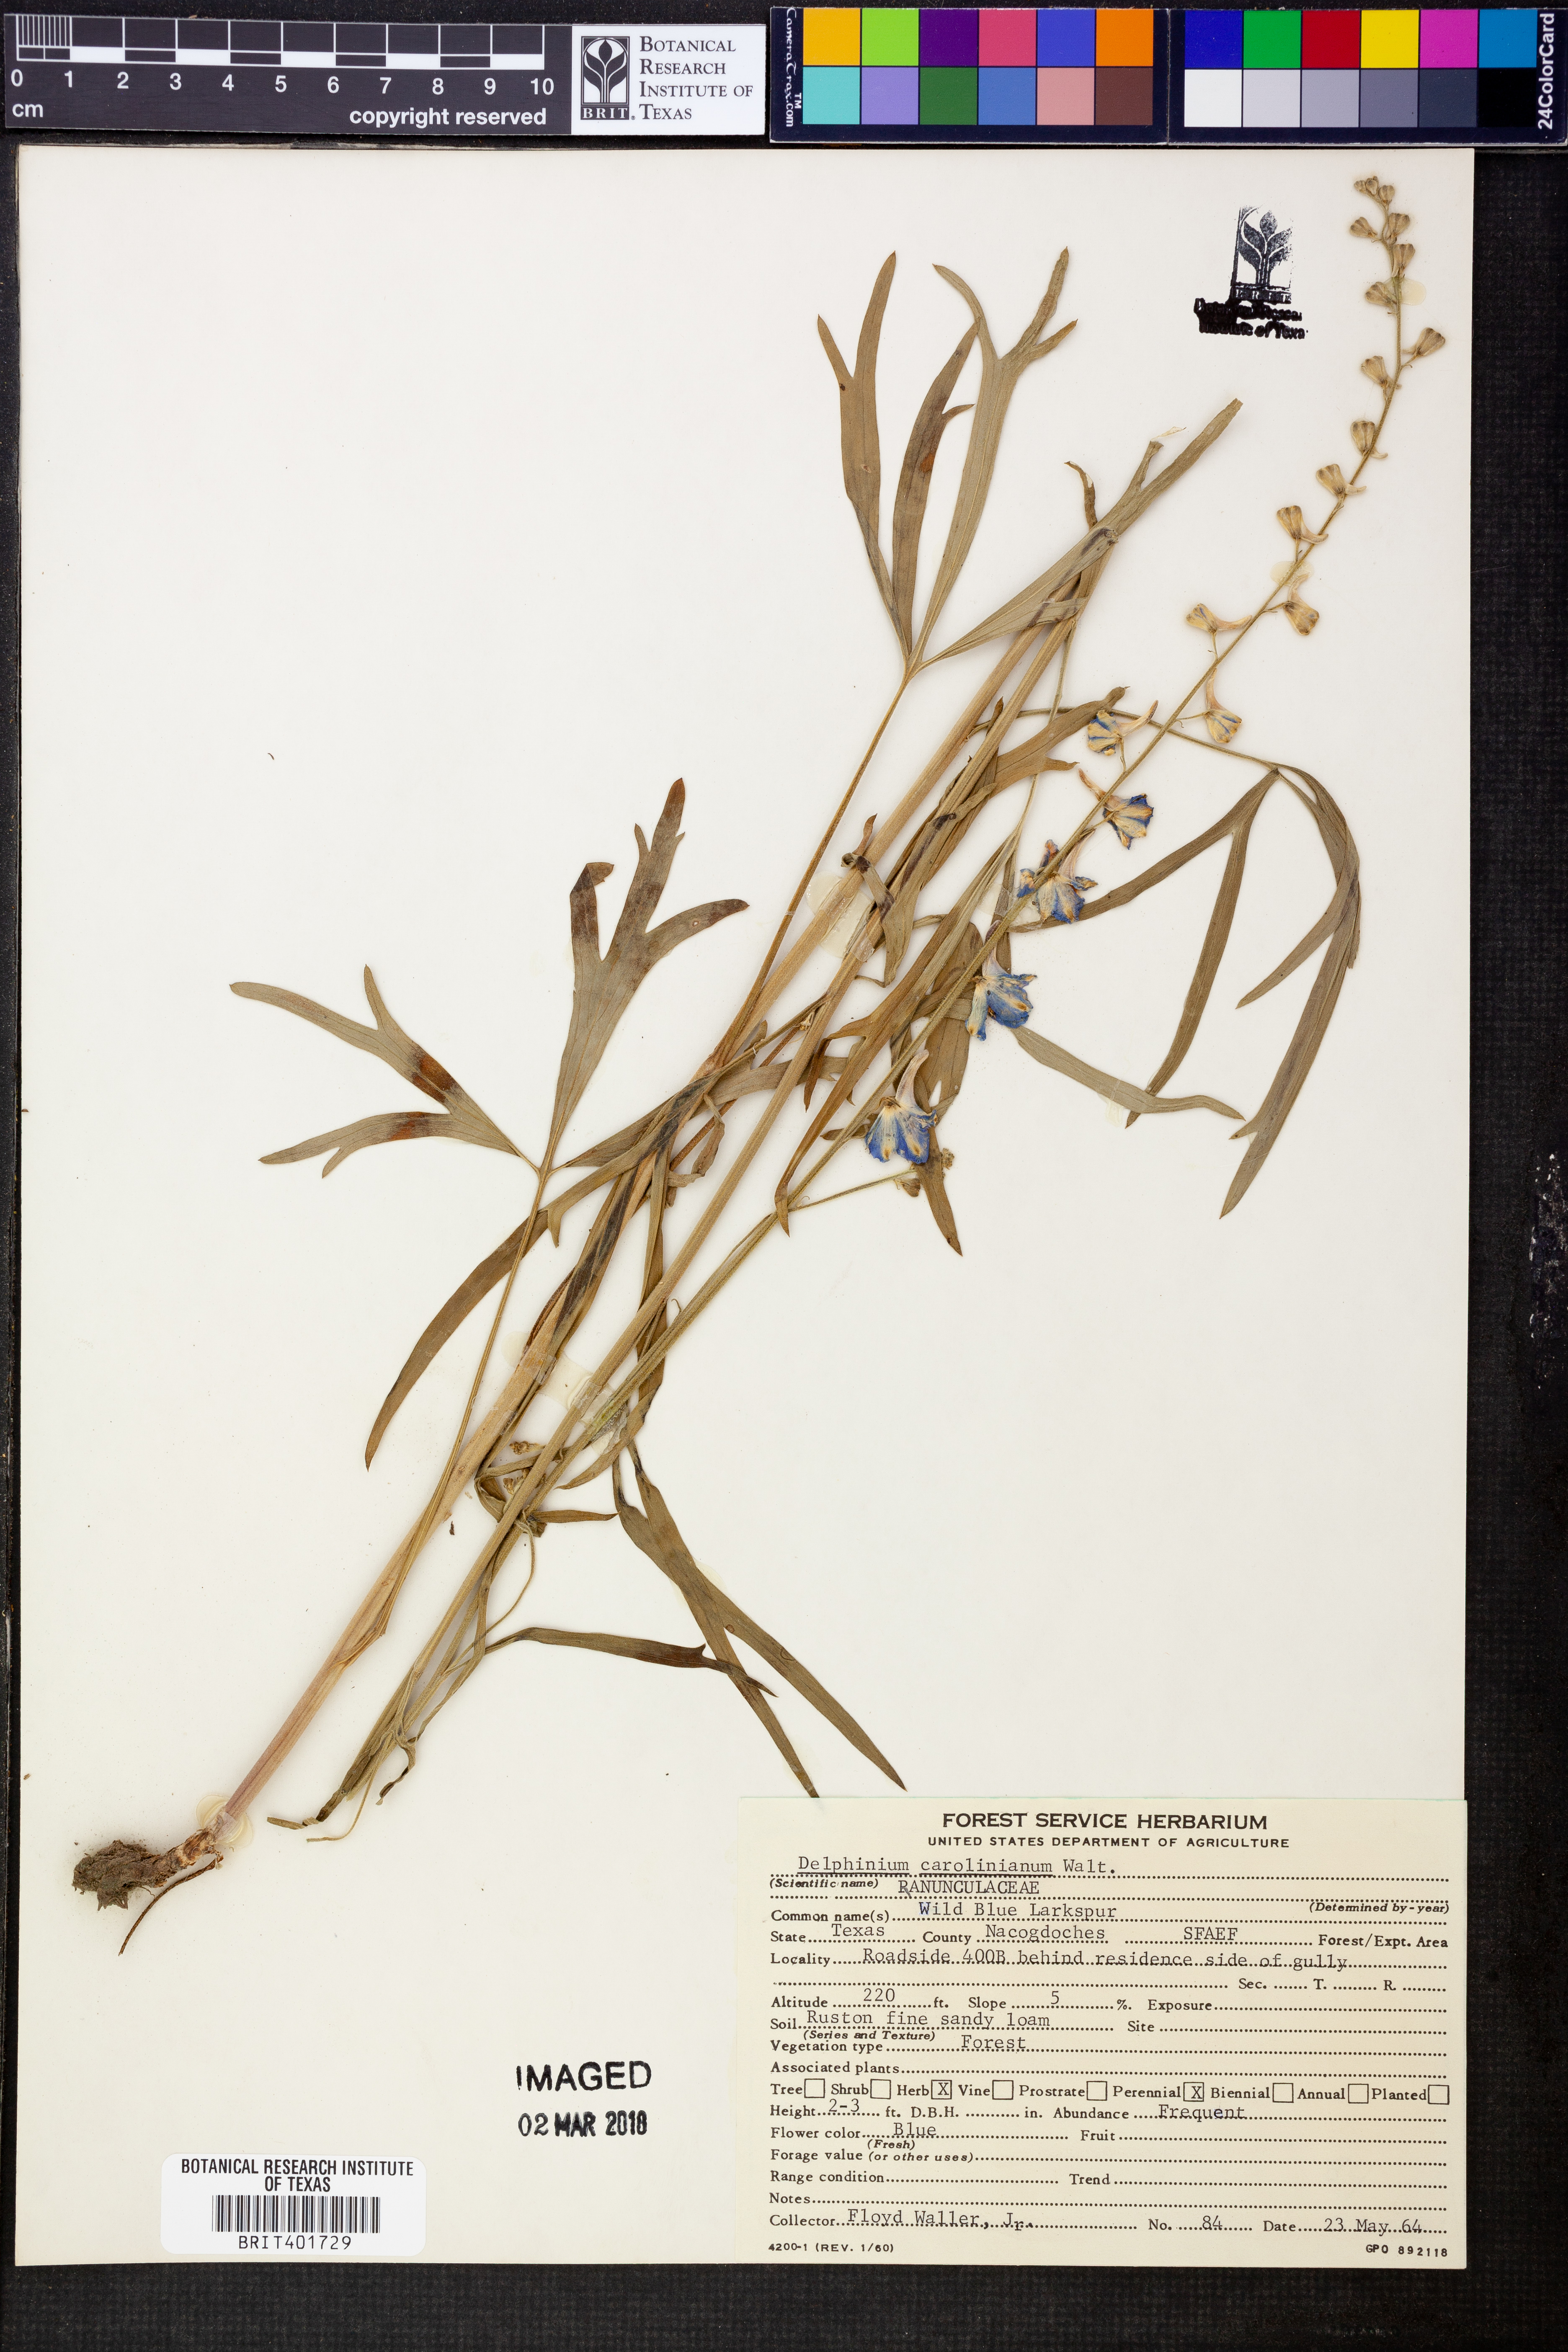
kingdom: Plantae
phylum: Tracheophyta
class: Magnoliopsida
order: Ranunculales
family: Ranunculaceae
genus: Delphinium
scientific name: Delphinium carolinianum
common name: Carolina larkspur
